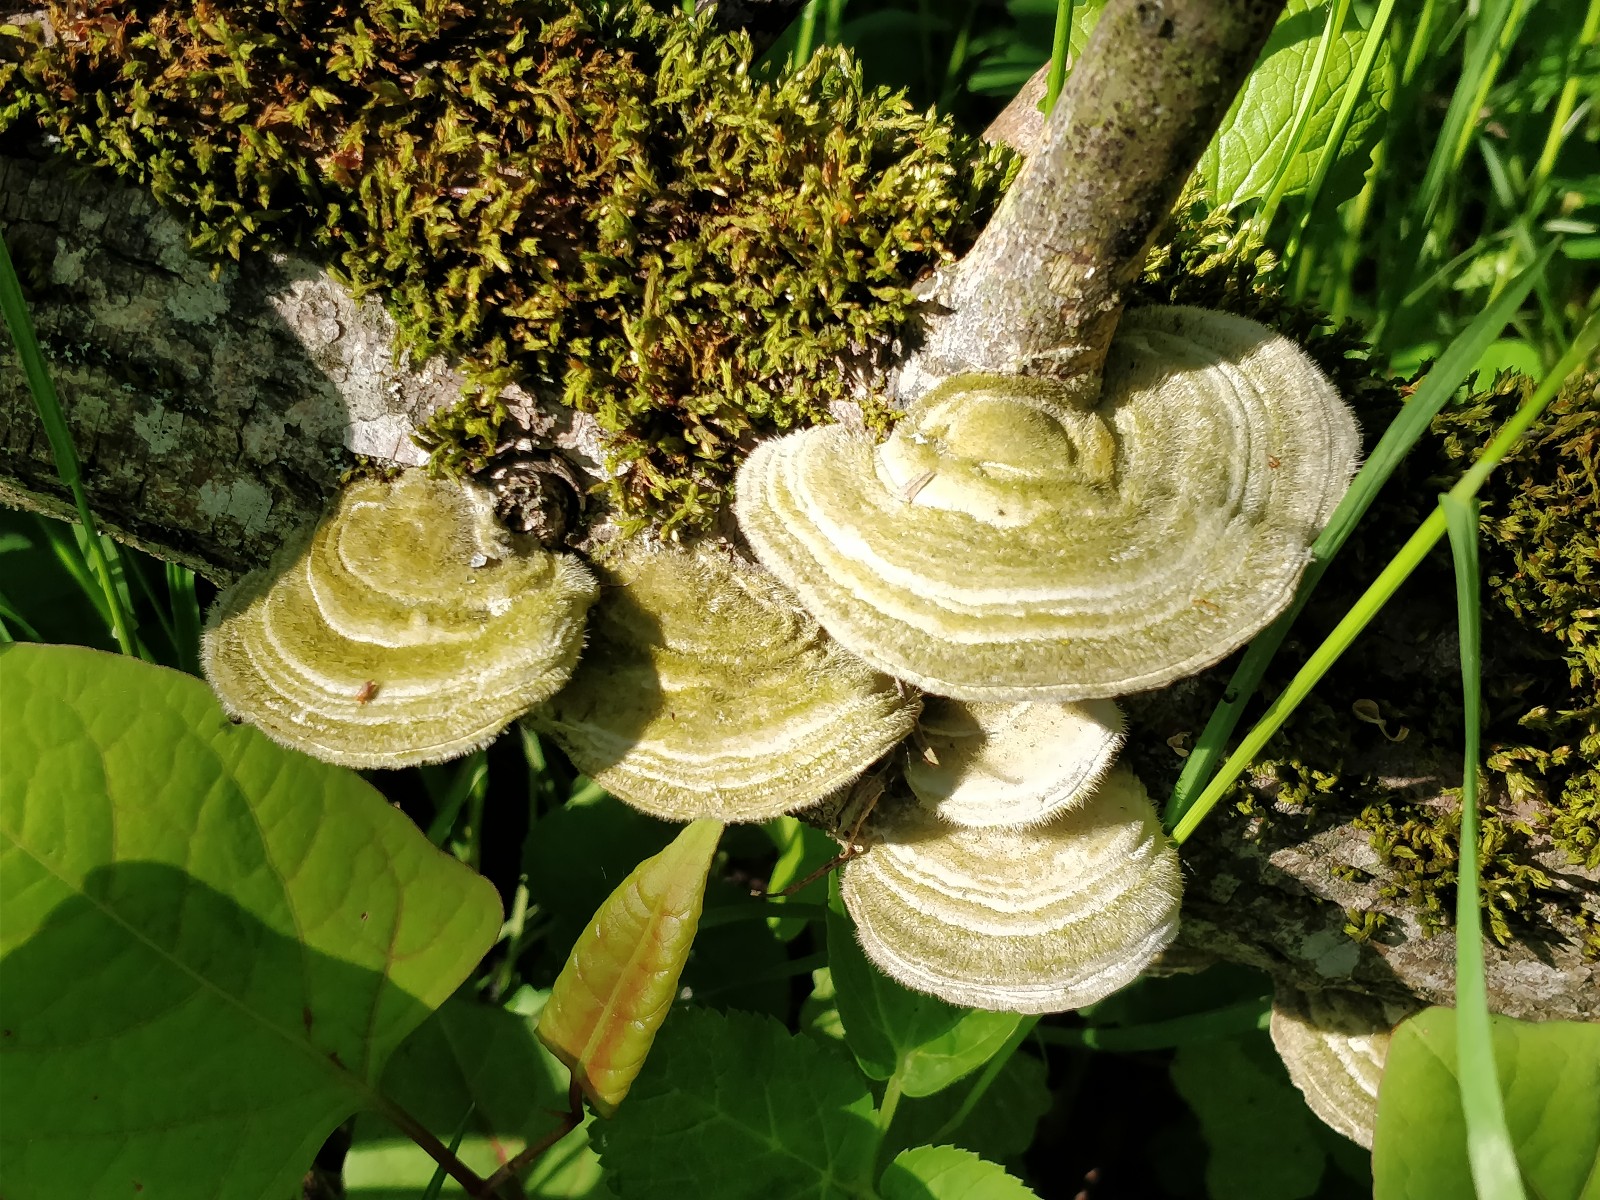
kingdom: Fungi
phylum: Basidiomycota
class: Agaricomycetes
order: Polyporales
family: Polyporaceae
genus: Trametes
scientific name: Trametes hirsuta
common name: håret læderporesvamp
